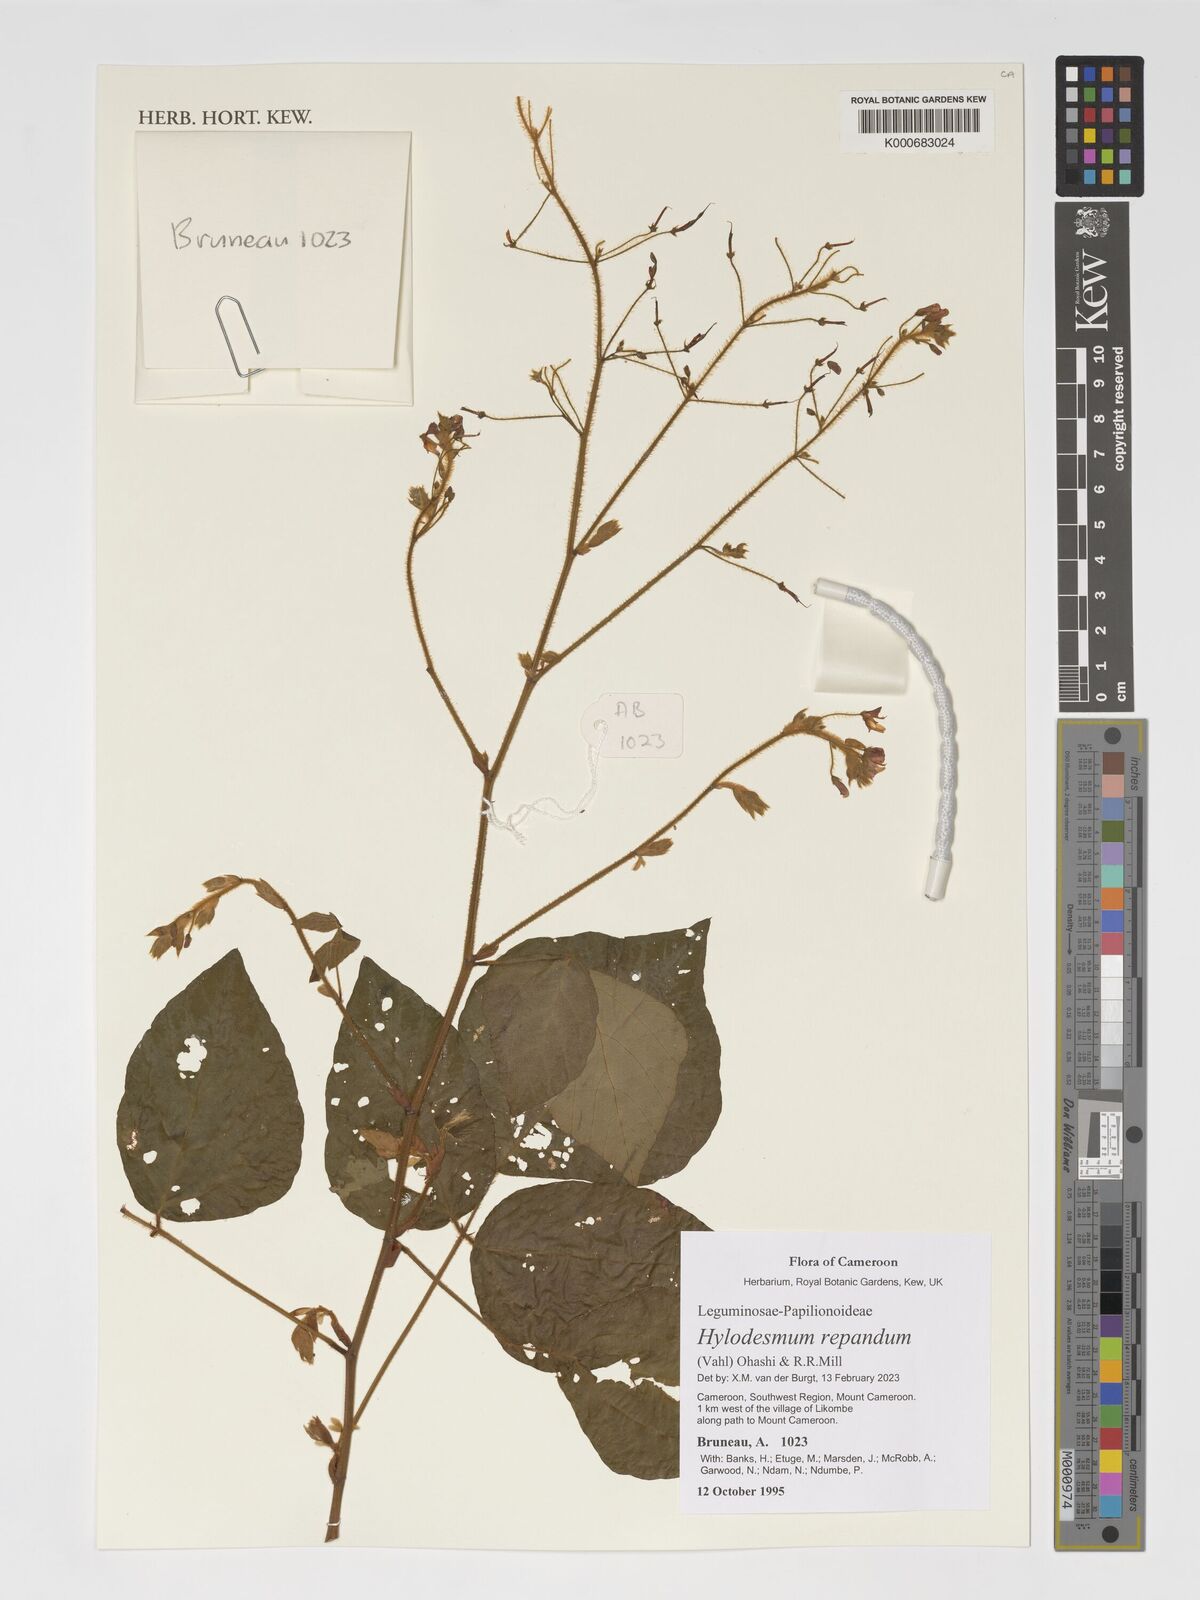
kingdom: Plantae
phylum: Tracheophyta
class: Magnoliopsida
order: Fabales
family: Fabaceae
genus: Hylodesmum
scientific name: Hylodesmum repandum
